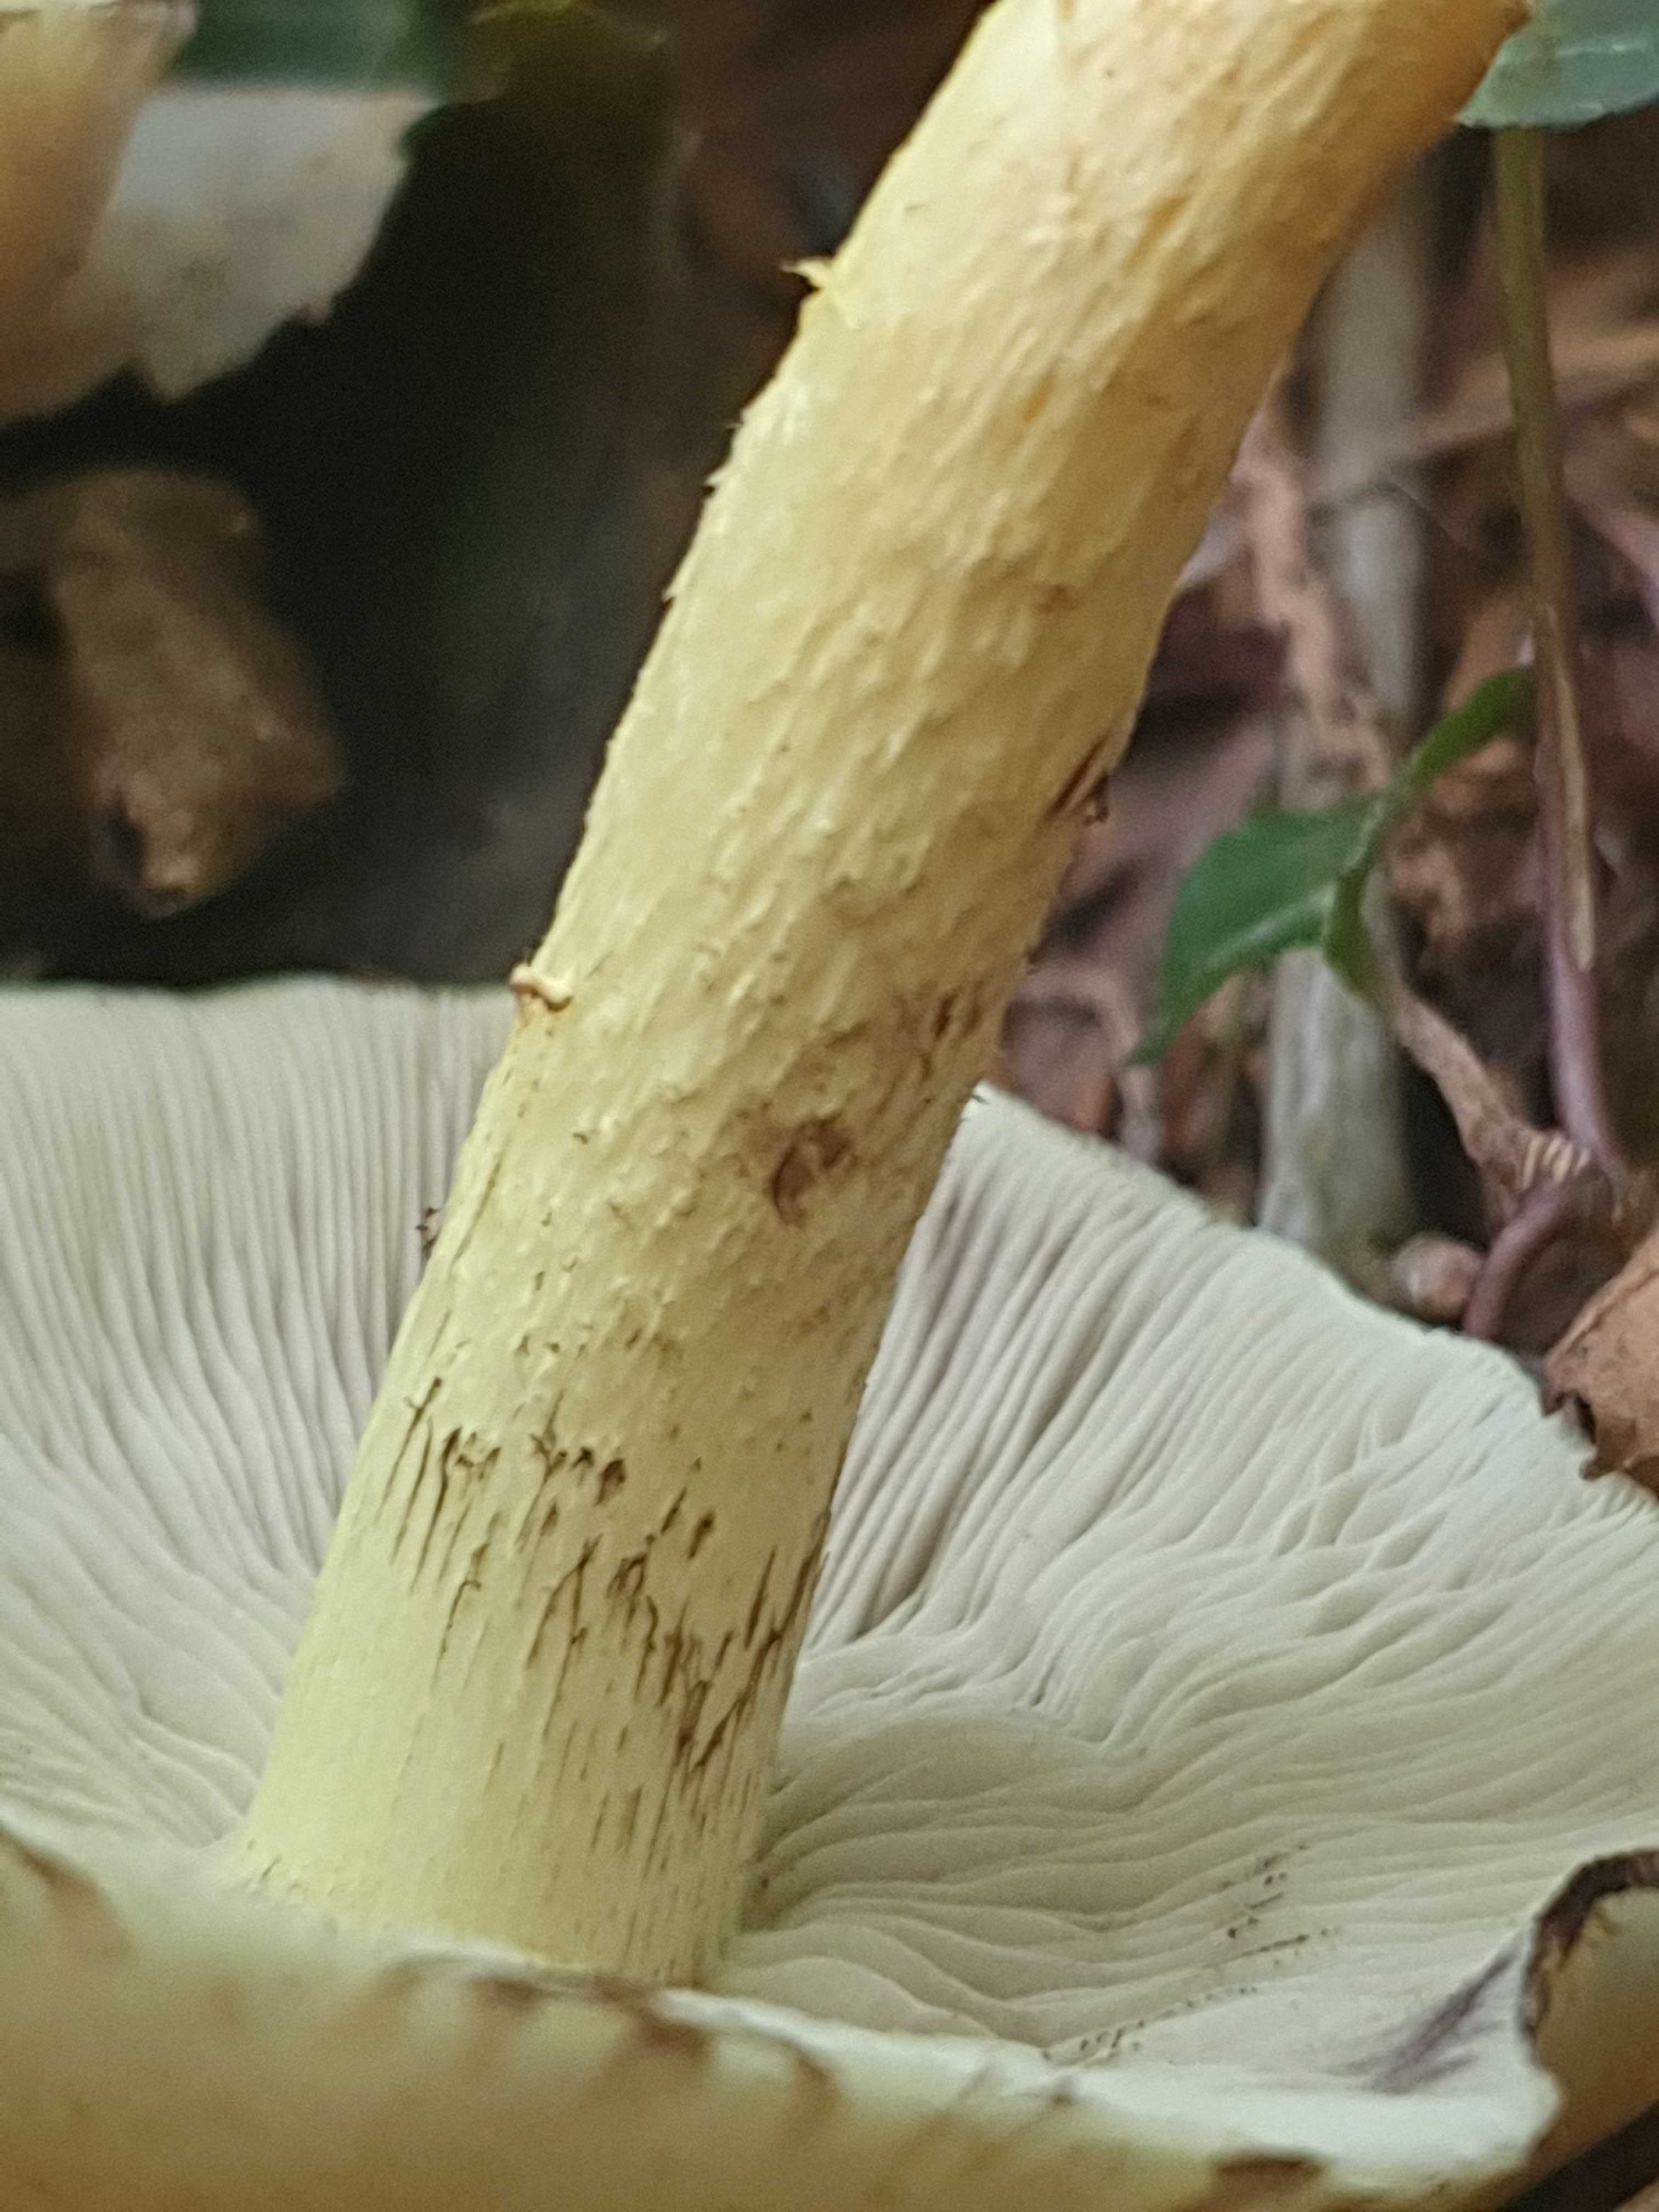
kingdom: Fungi
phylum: Basidiomycota
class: Agaricomycetes
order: Agaricales
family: Strophariaceae
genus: Hypholoma
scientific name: Hypholoma fasciculare
